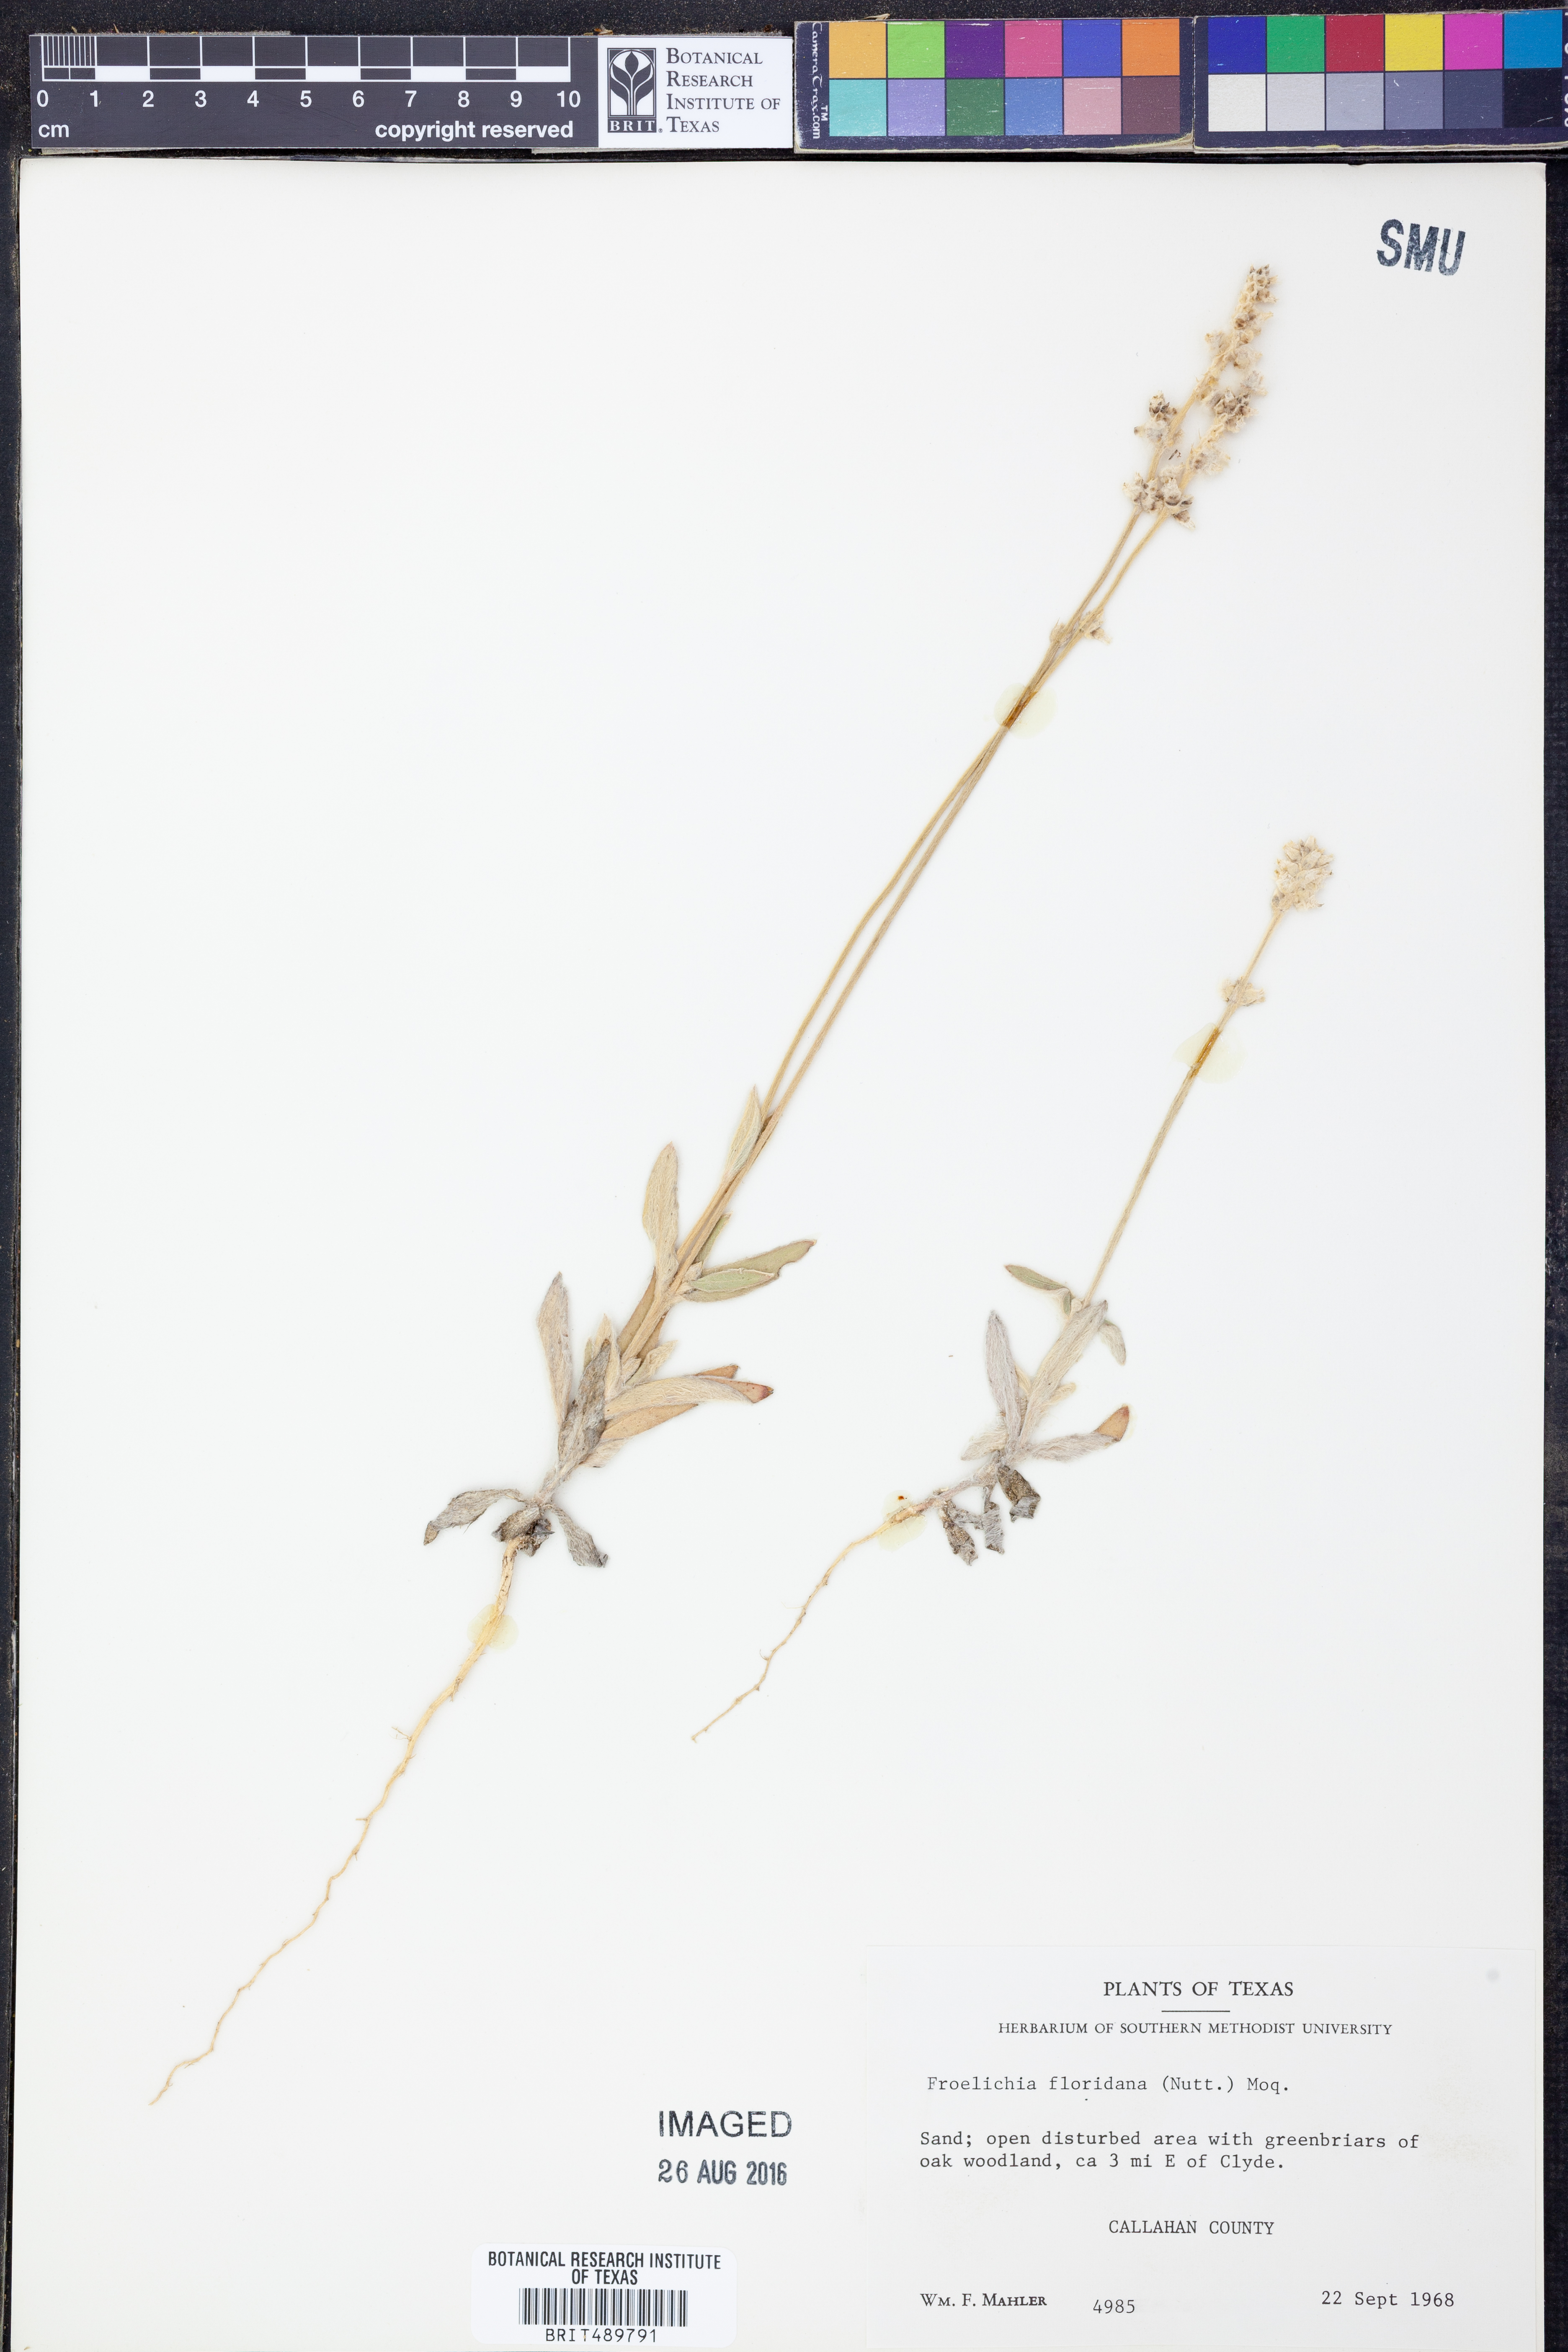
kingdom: Plantae
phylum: Tracheophyta
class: Magnoliopsida
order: Caryophyllales
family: Amaranthaceae
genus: Froelichia
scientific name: Froelichia floridana
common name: Florida snake-cotton
